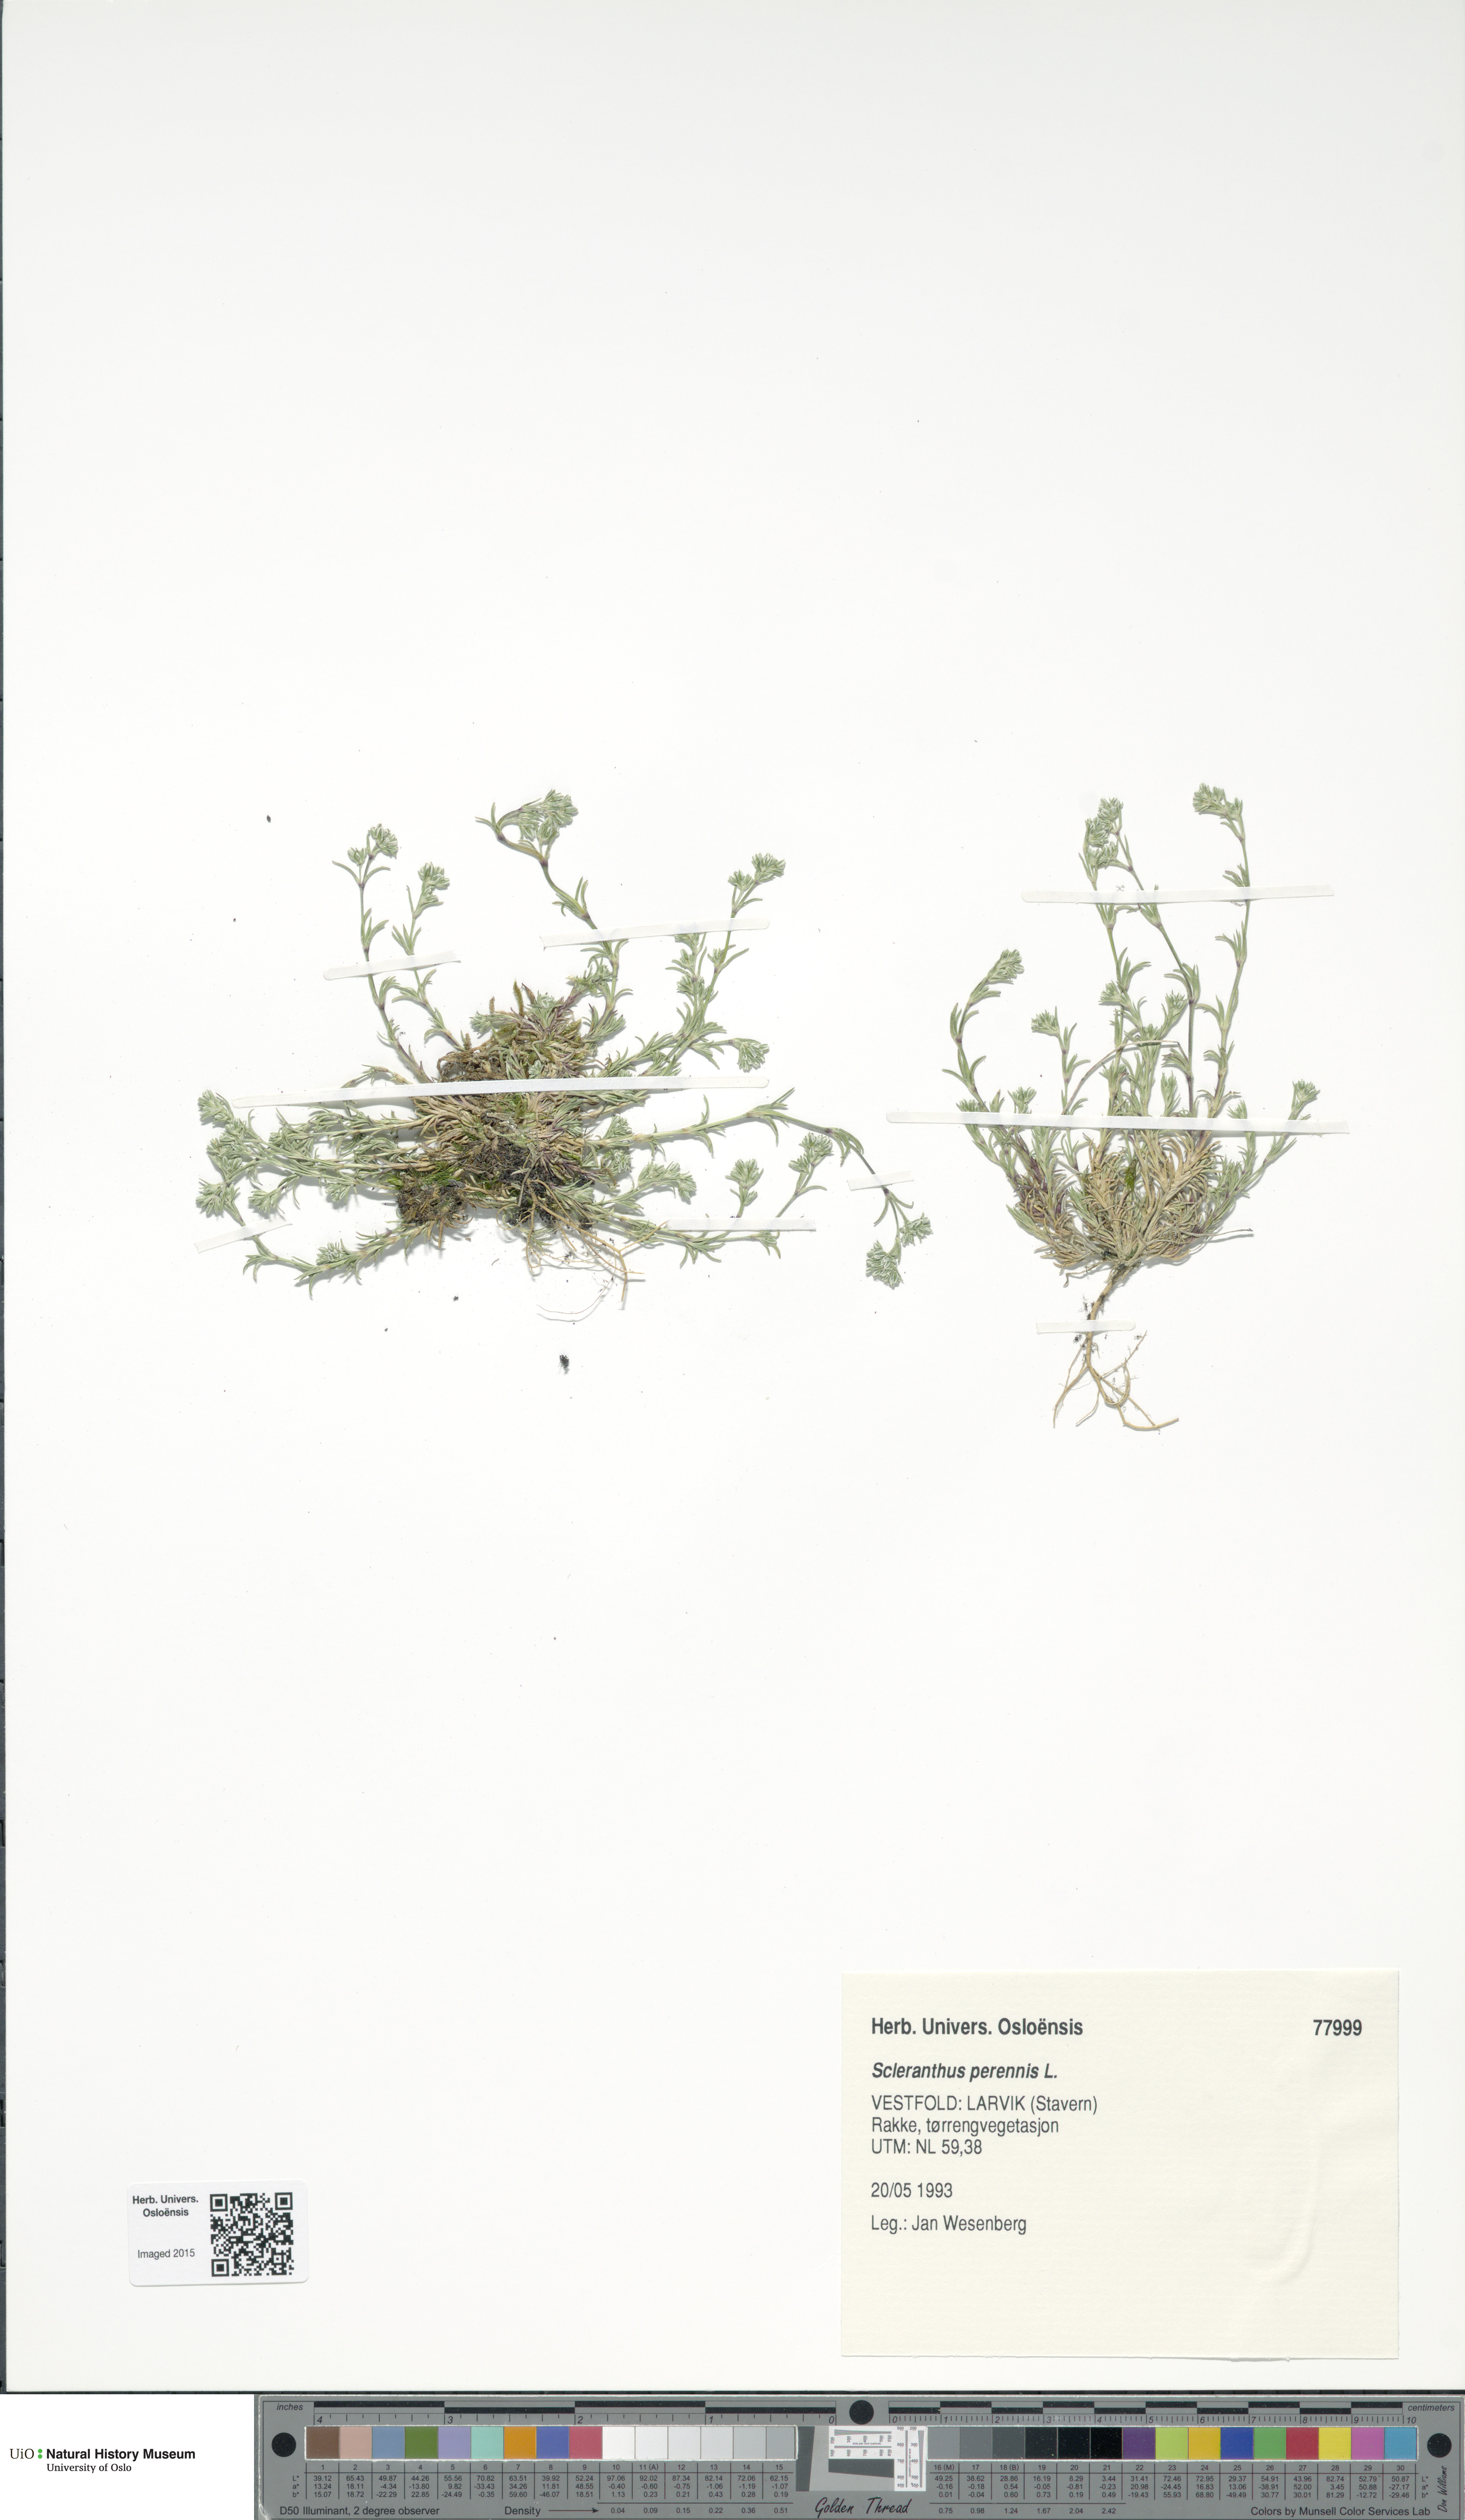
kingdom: Plantae
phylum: Tracheophyta
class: Magnoliopsida
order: Caryophyllales
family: Caryophyllaceae
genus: Scleranthus
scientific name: Scleranthus perennis
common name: Perennial knawel
